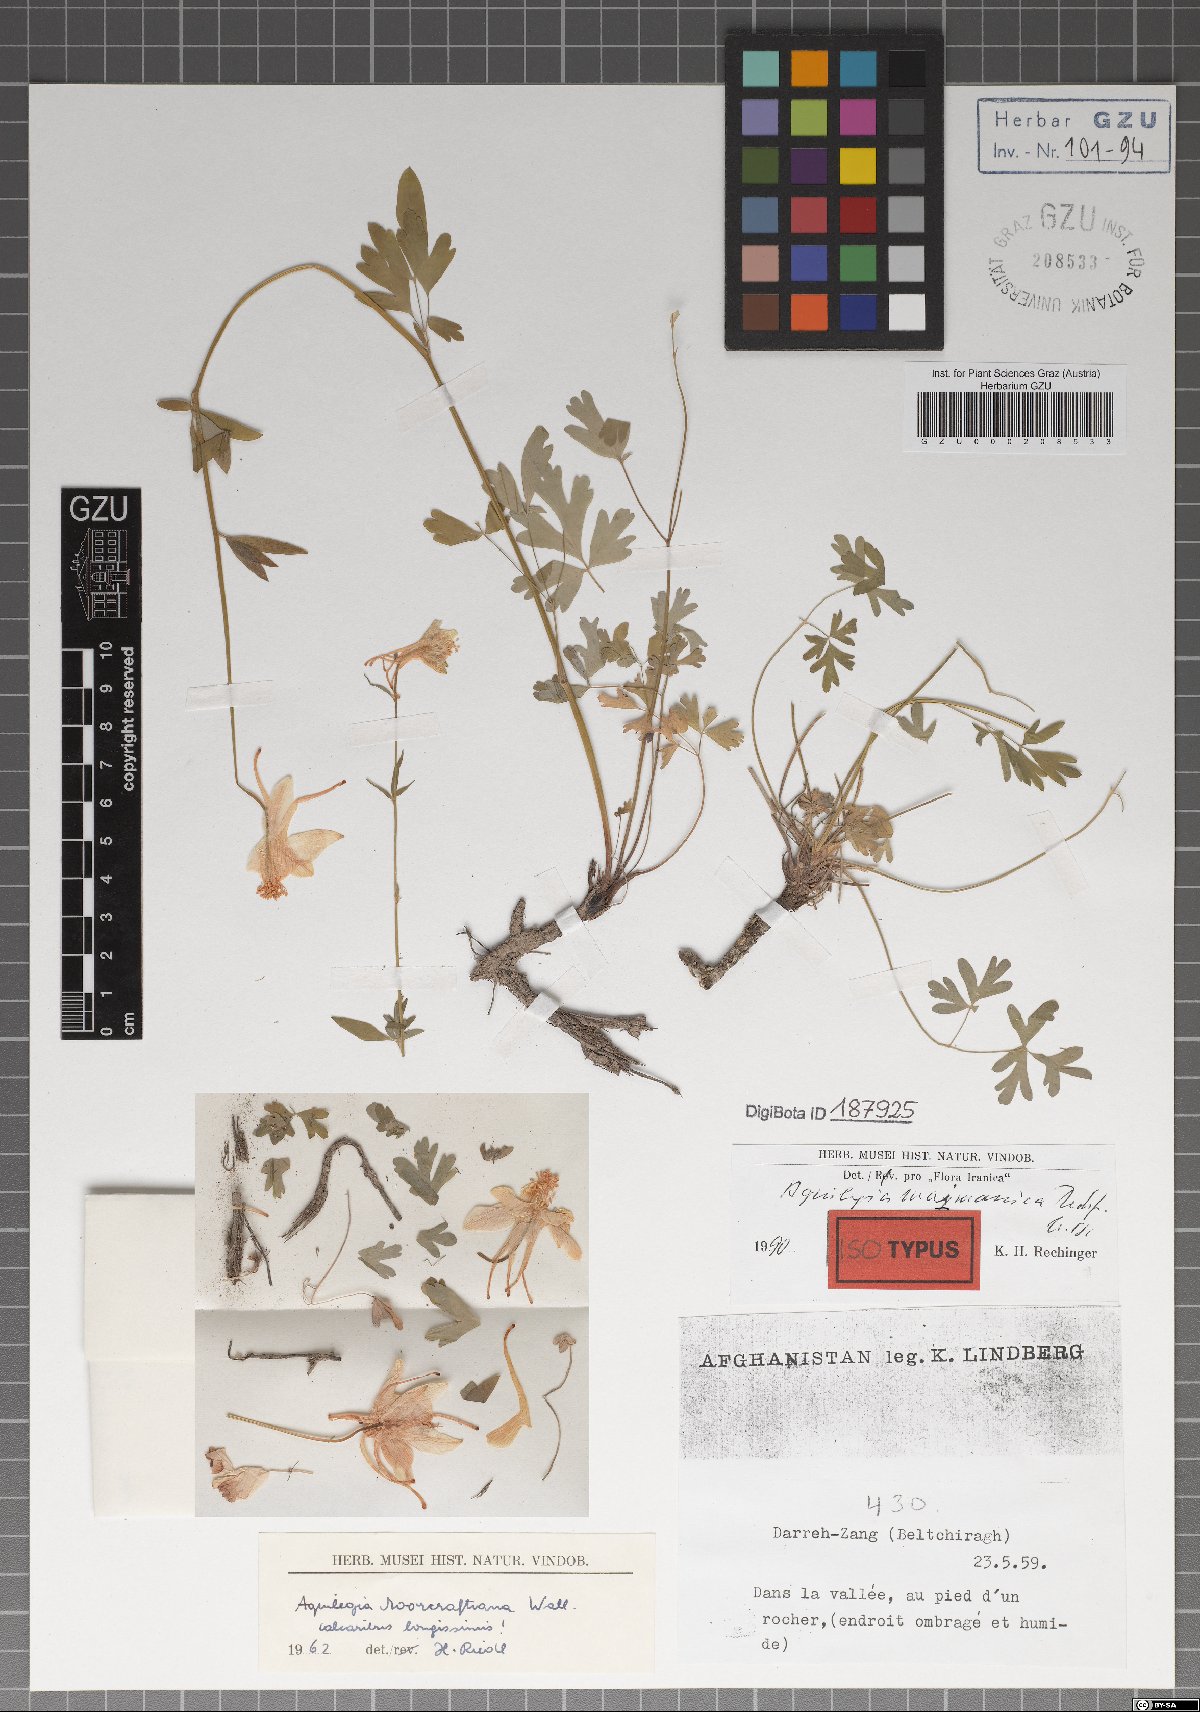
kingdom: Plantae
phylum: Tracheophyta
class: Magnoliopsida
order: Ranunculales
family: Ranunculaceae
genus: Aquilegia
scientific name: Aquilegia maimanica
